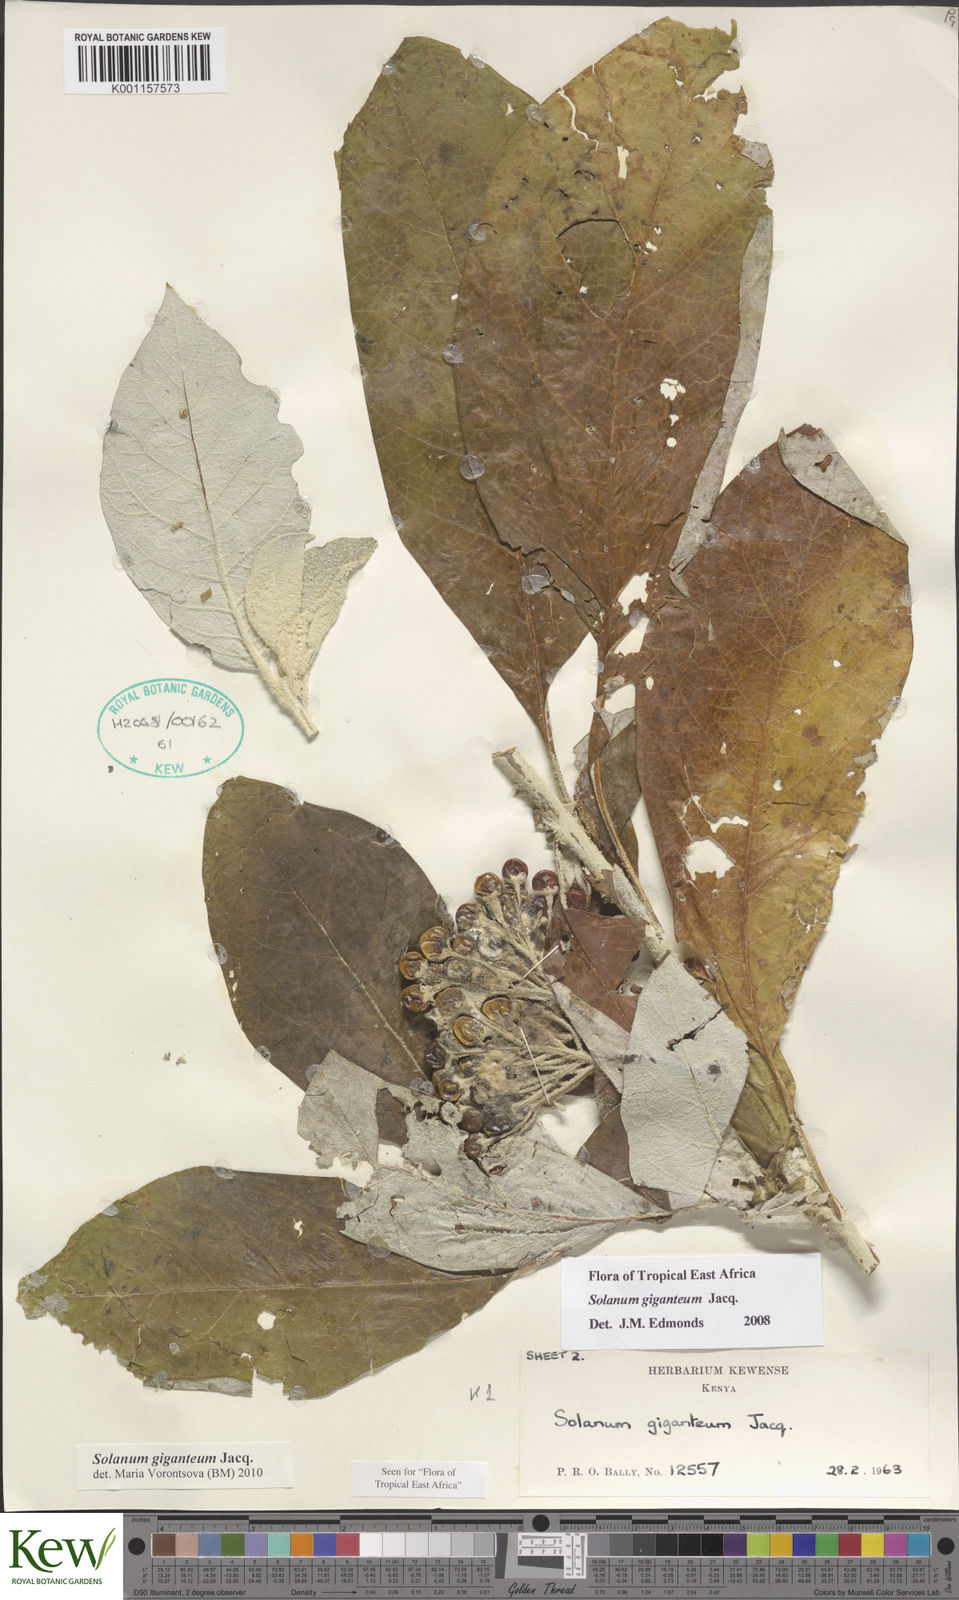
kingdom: Plantae
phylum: Tracheophyta
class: Magnoliopsida
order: Solanales
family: Solanaceae
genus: Solanum
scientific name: Solanum giganteum
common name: Healing-leaf-tree
